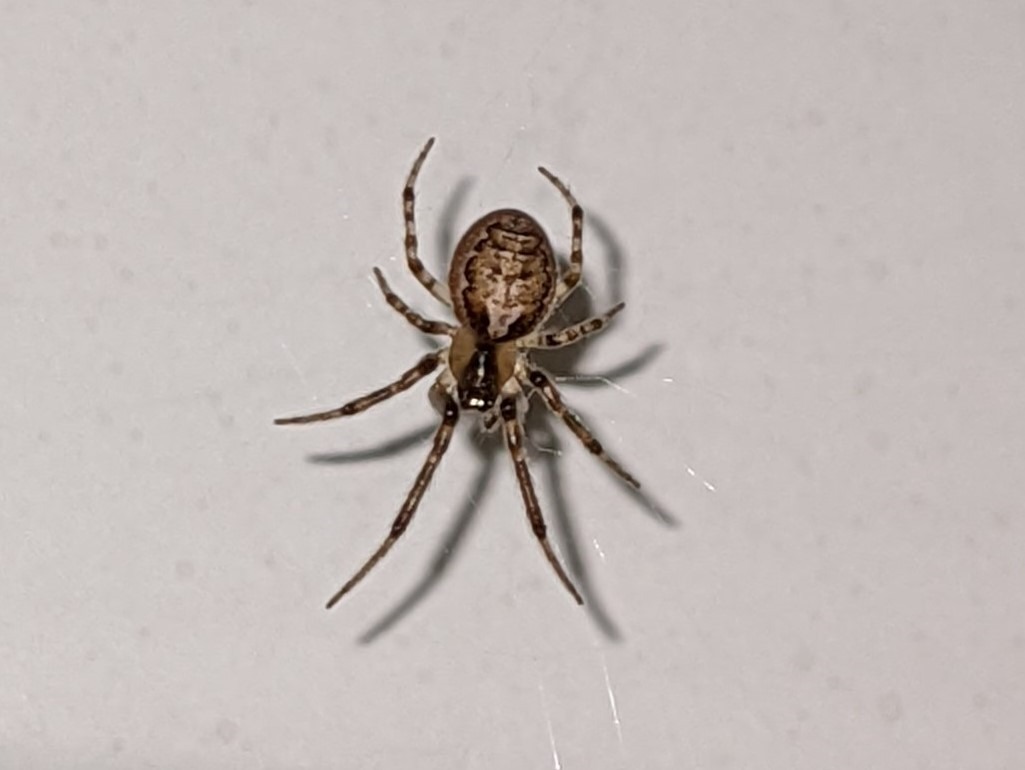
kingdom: Animalia
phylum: Arthropoda
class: Arachnida
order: Araneae
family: Araneidae
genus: Zygiella
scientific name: Zygiella x-notata
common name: Grå sektoredderkop
